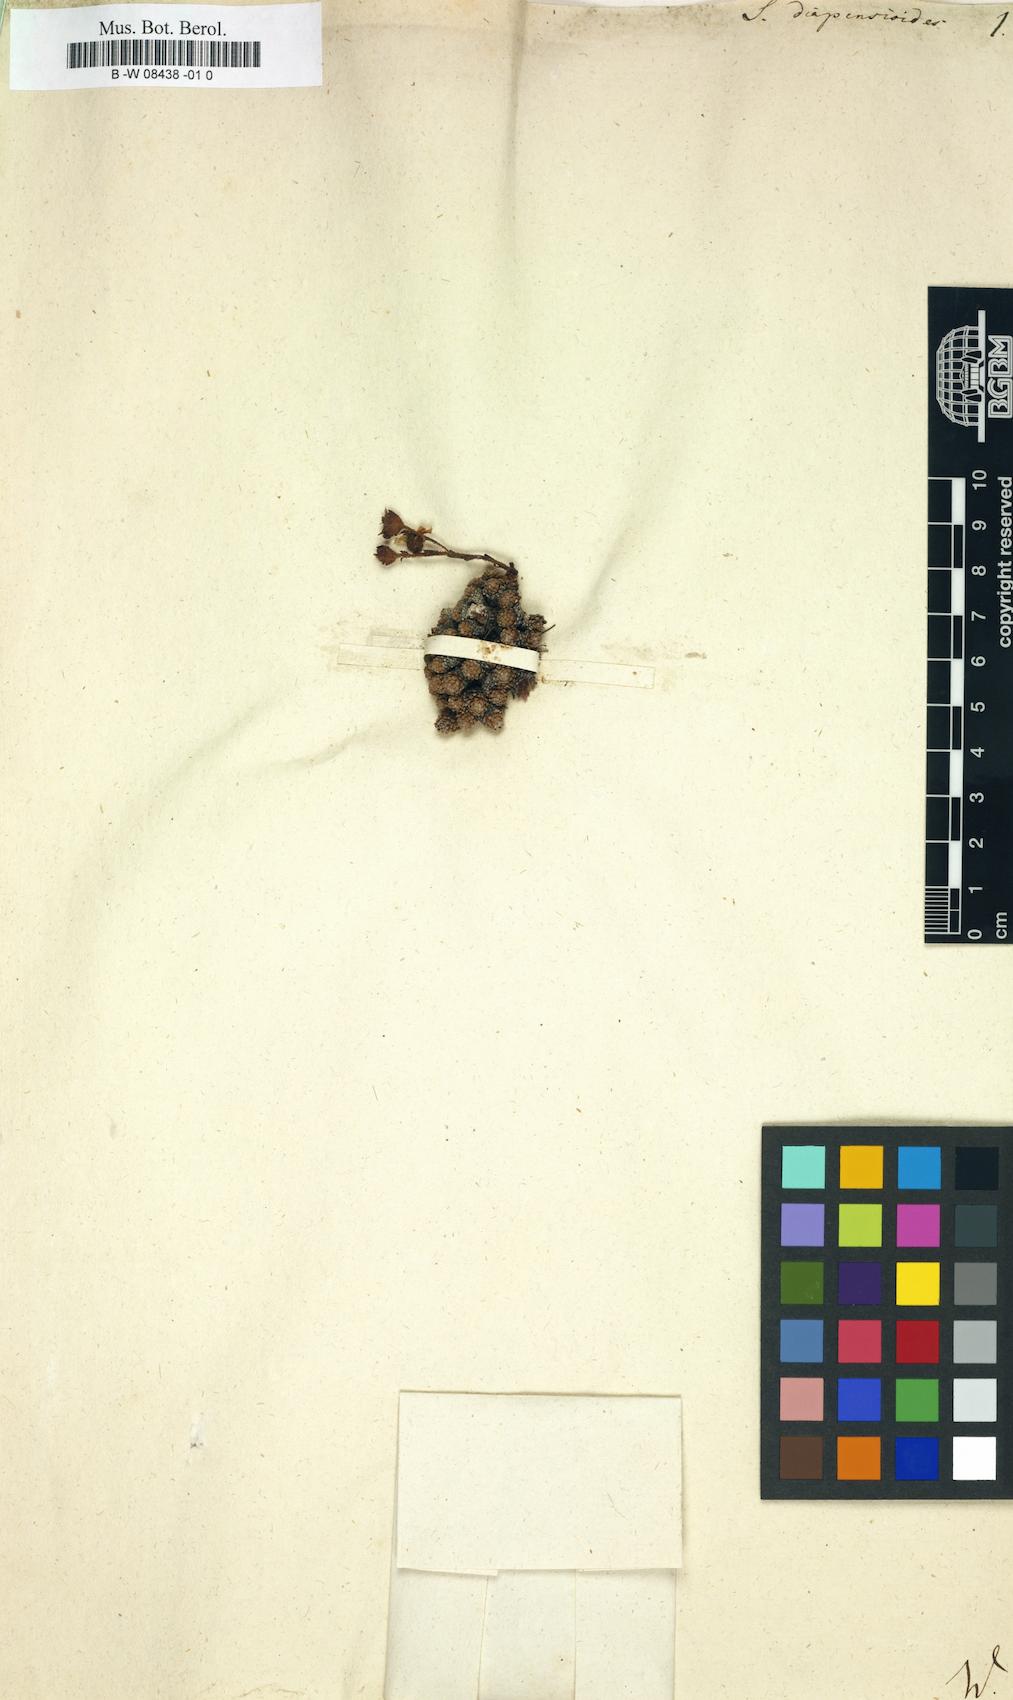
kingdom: Plantae
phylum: Tracheophyta
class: Magnoliopsida
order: Saxifragales
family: Saxifragaceae
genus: Saxifraga
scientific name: Saxifraga diapensioides
